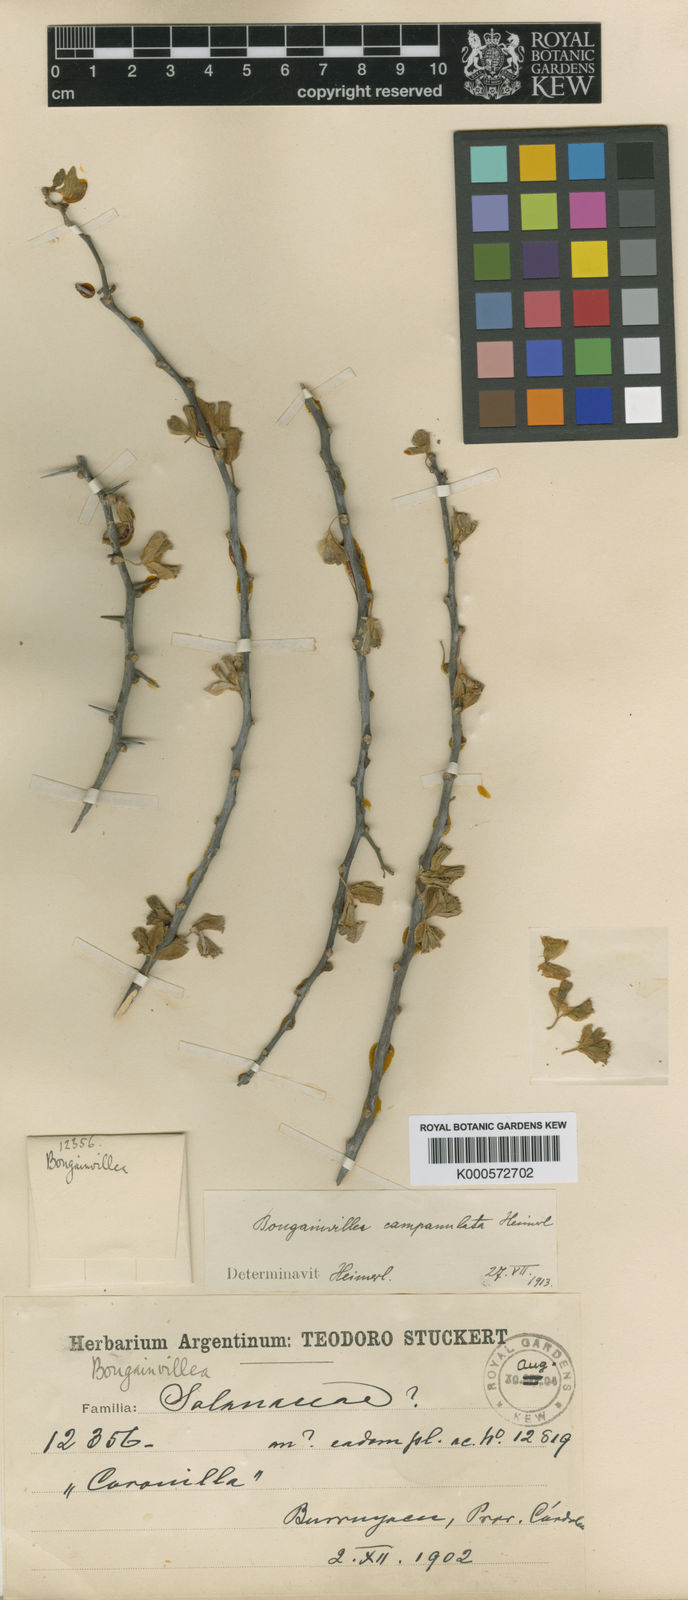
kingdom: Plantae
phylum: Tracheophyta
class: Magnoliopsida
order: Caryophyllales
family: Nyctaginaceae
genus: Bougainvillea
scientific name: Bougainvillea campanulata
